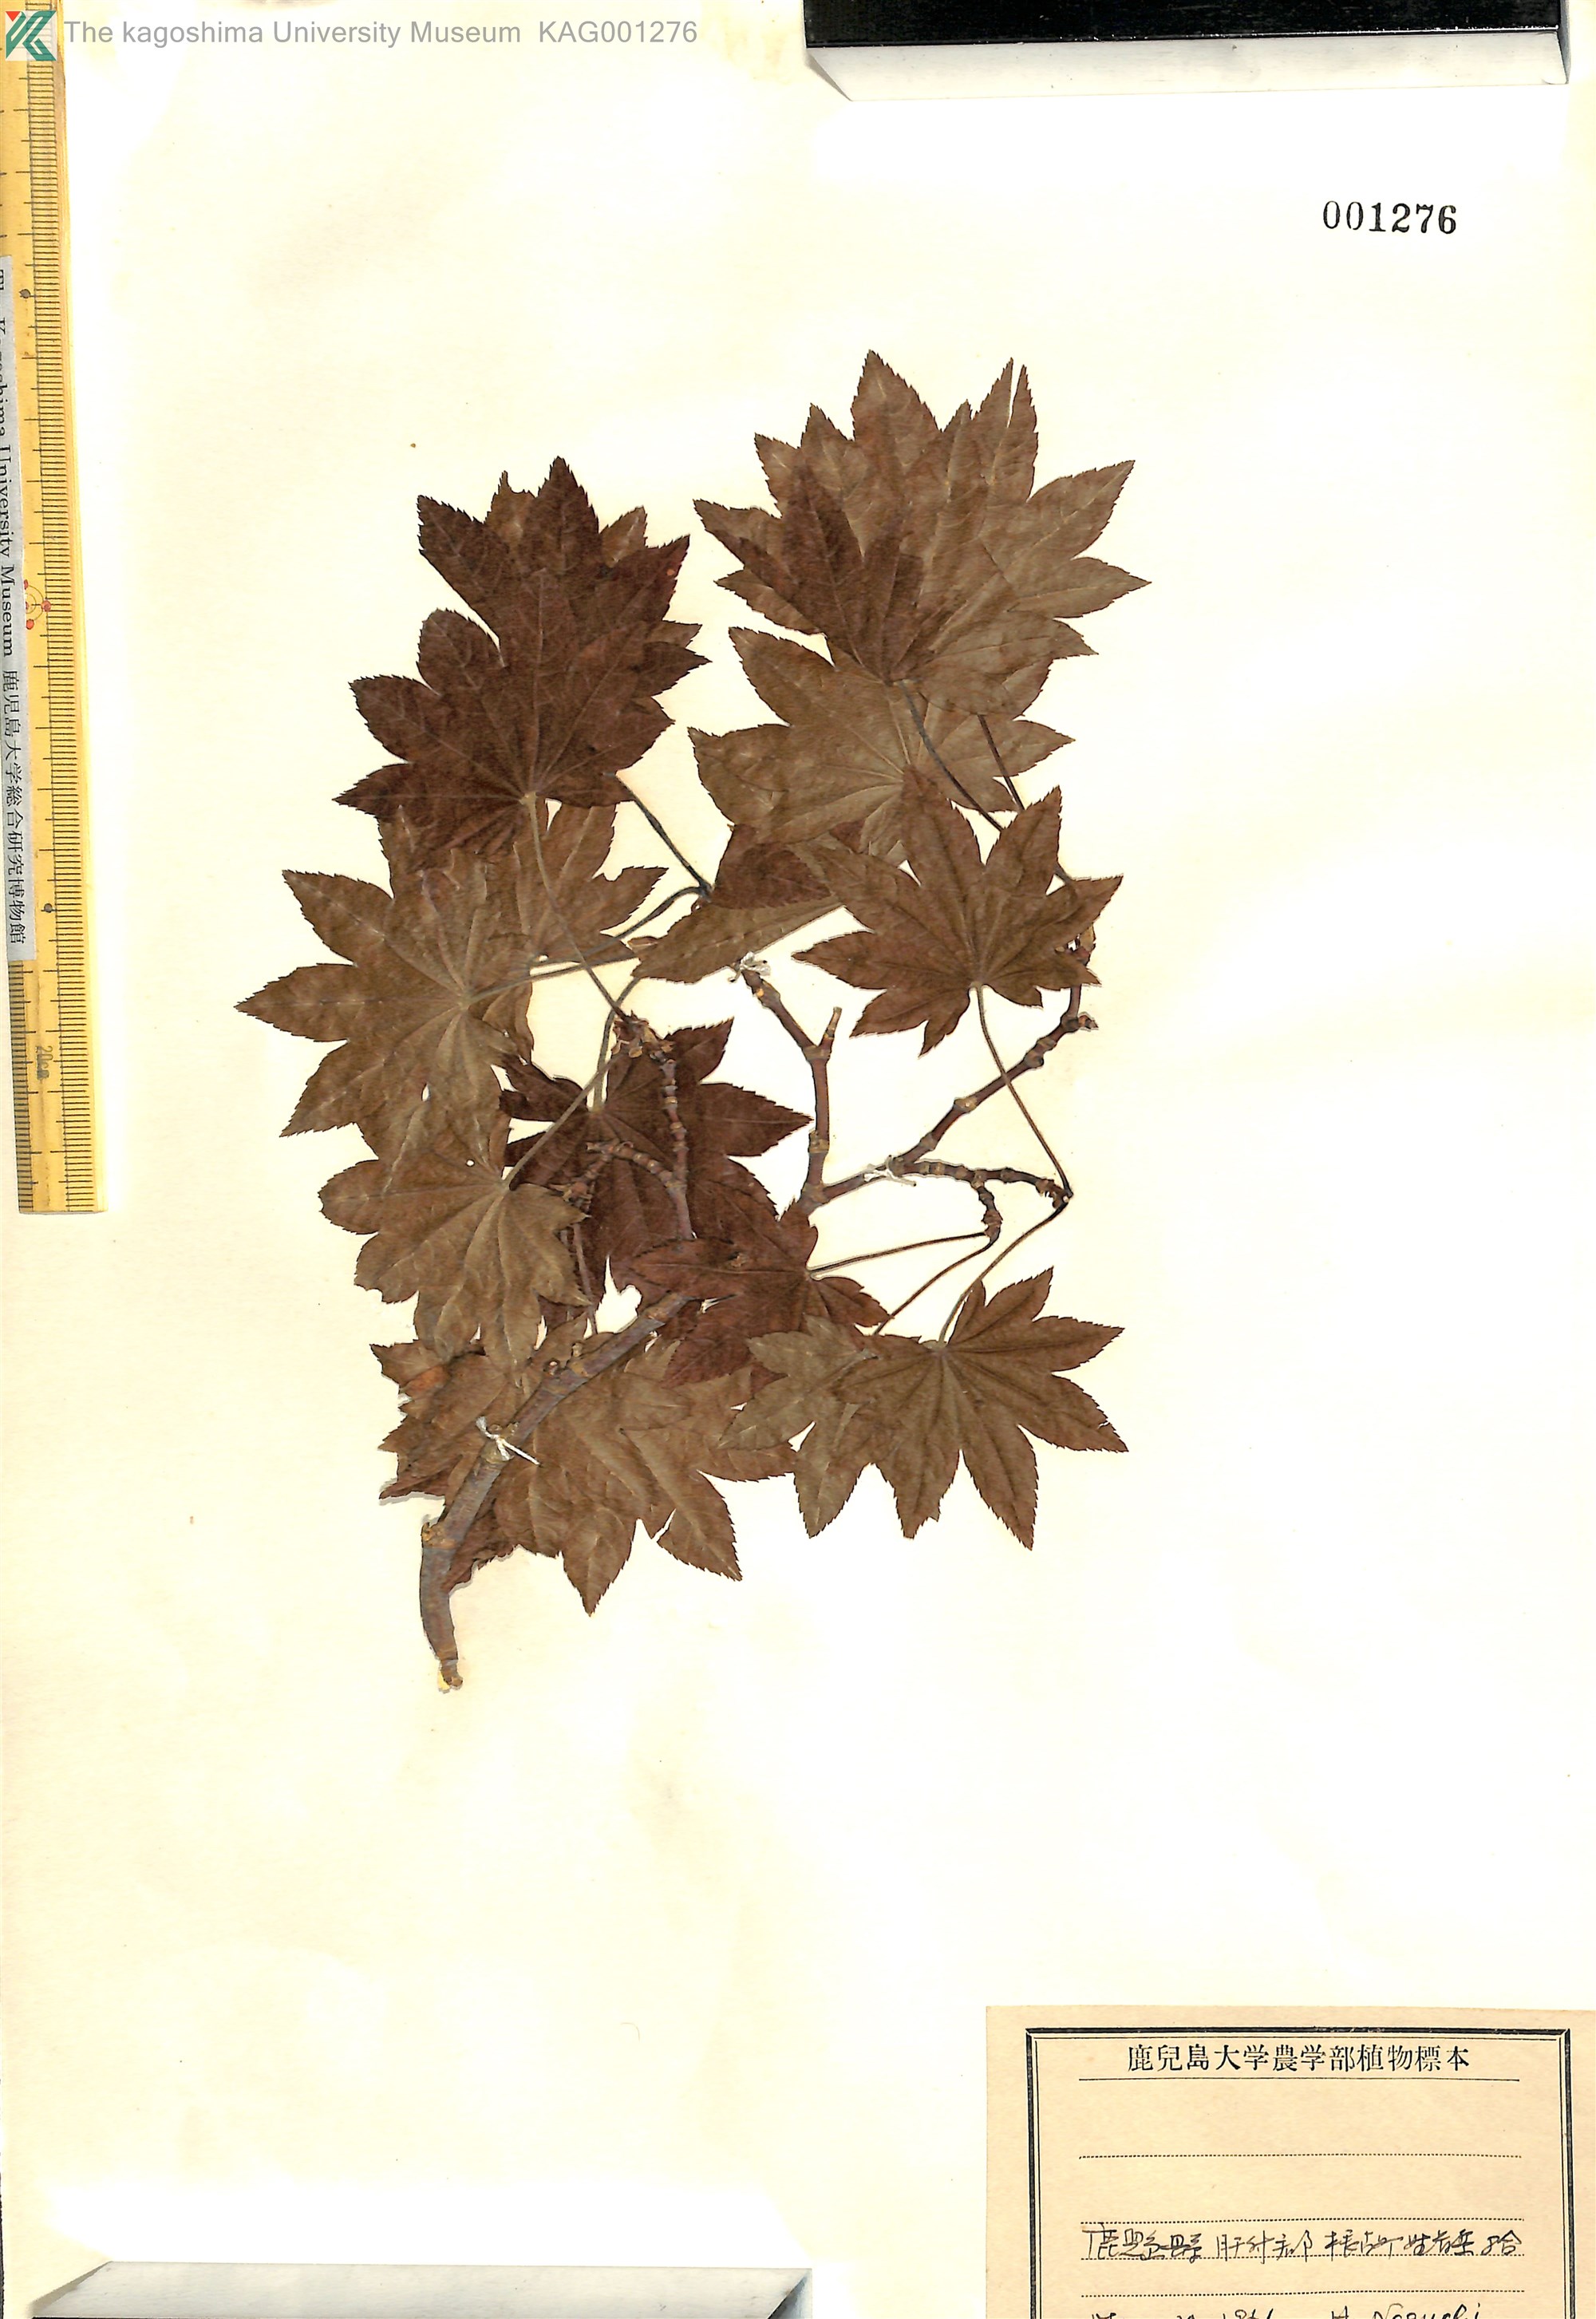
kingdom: Plantae
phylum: Tracheophyta
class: Magnoliopsida
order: Sapindales
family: Sapindaceae
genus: Acer
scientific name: Acer sieboldianum
